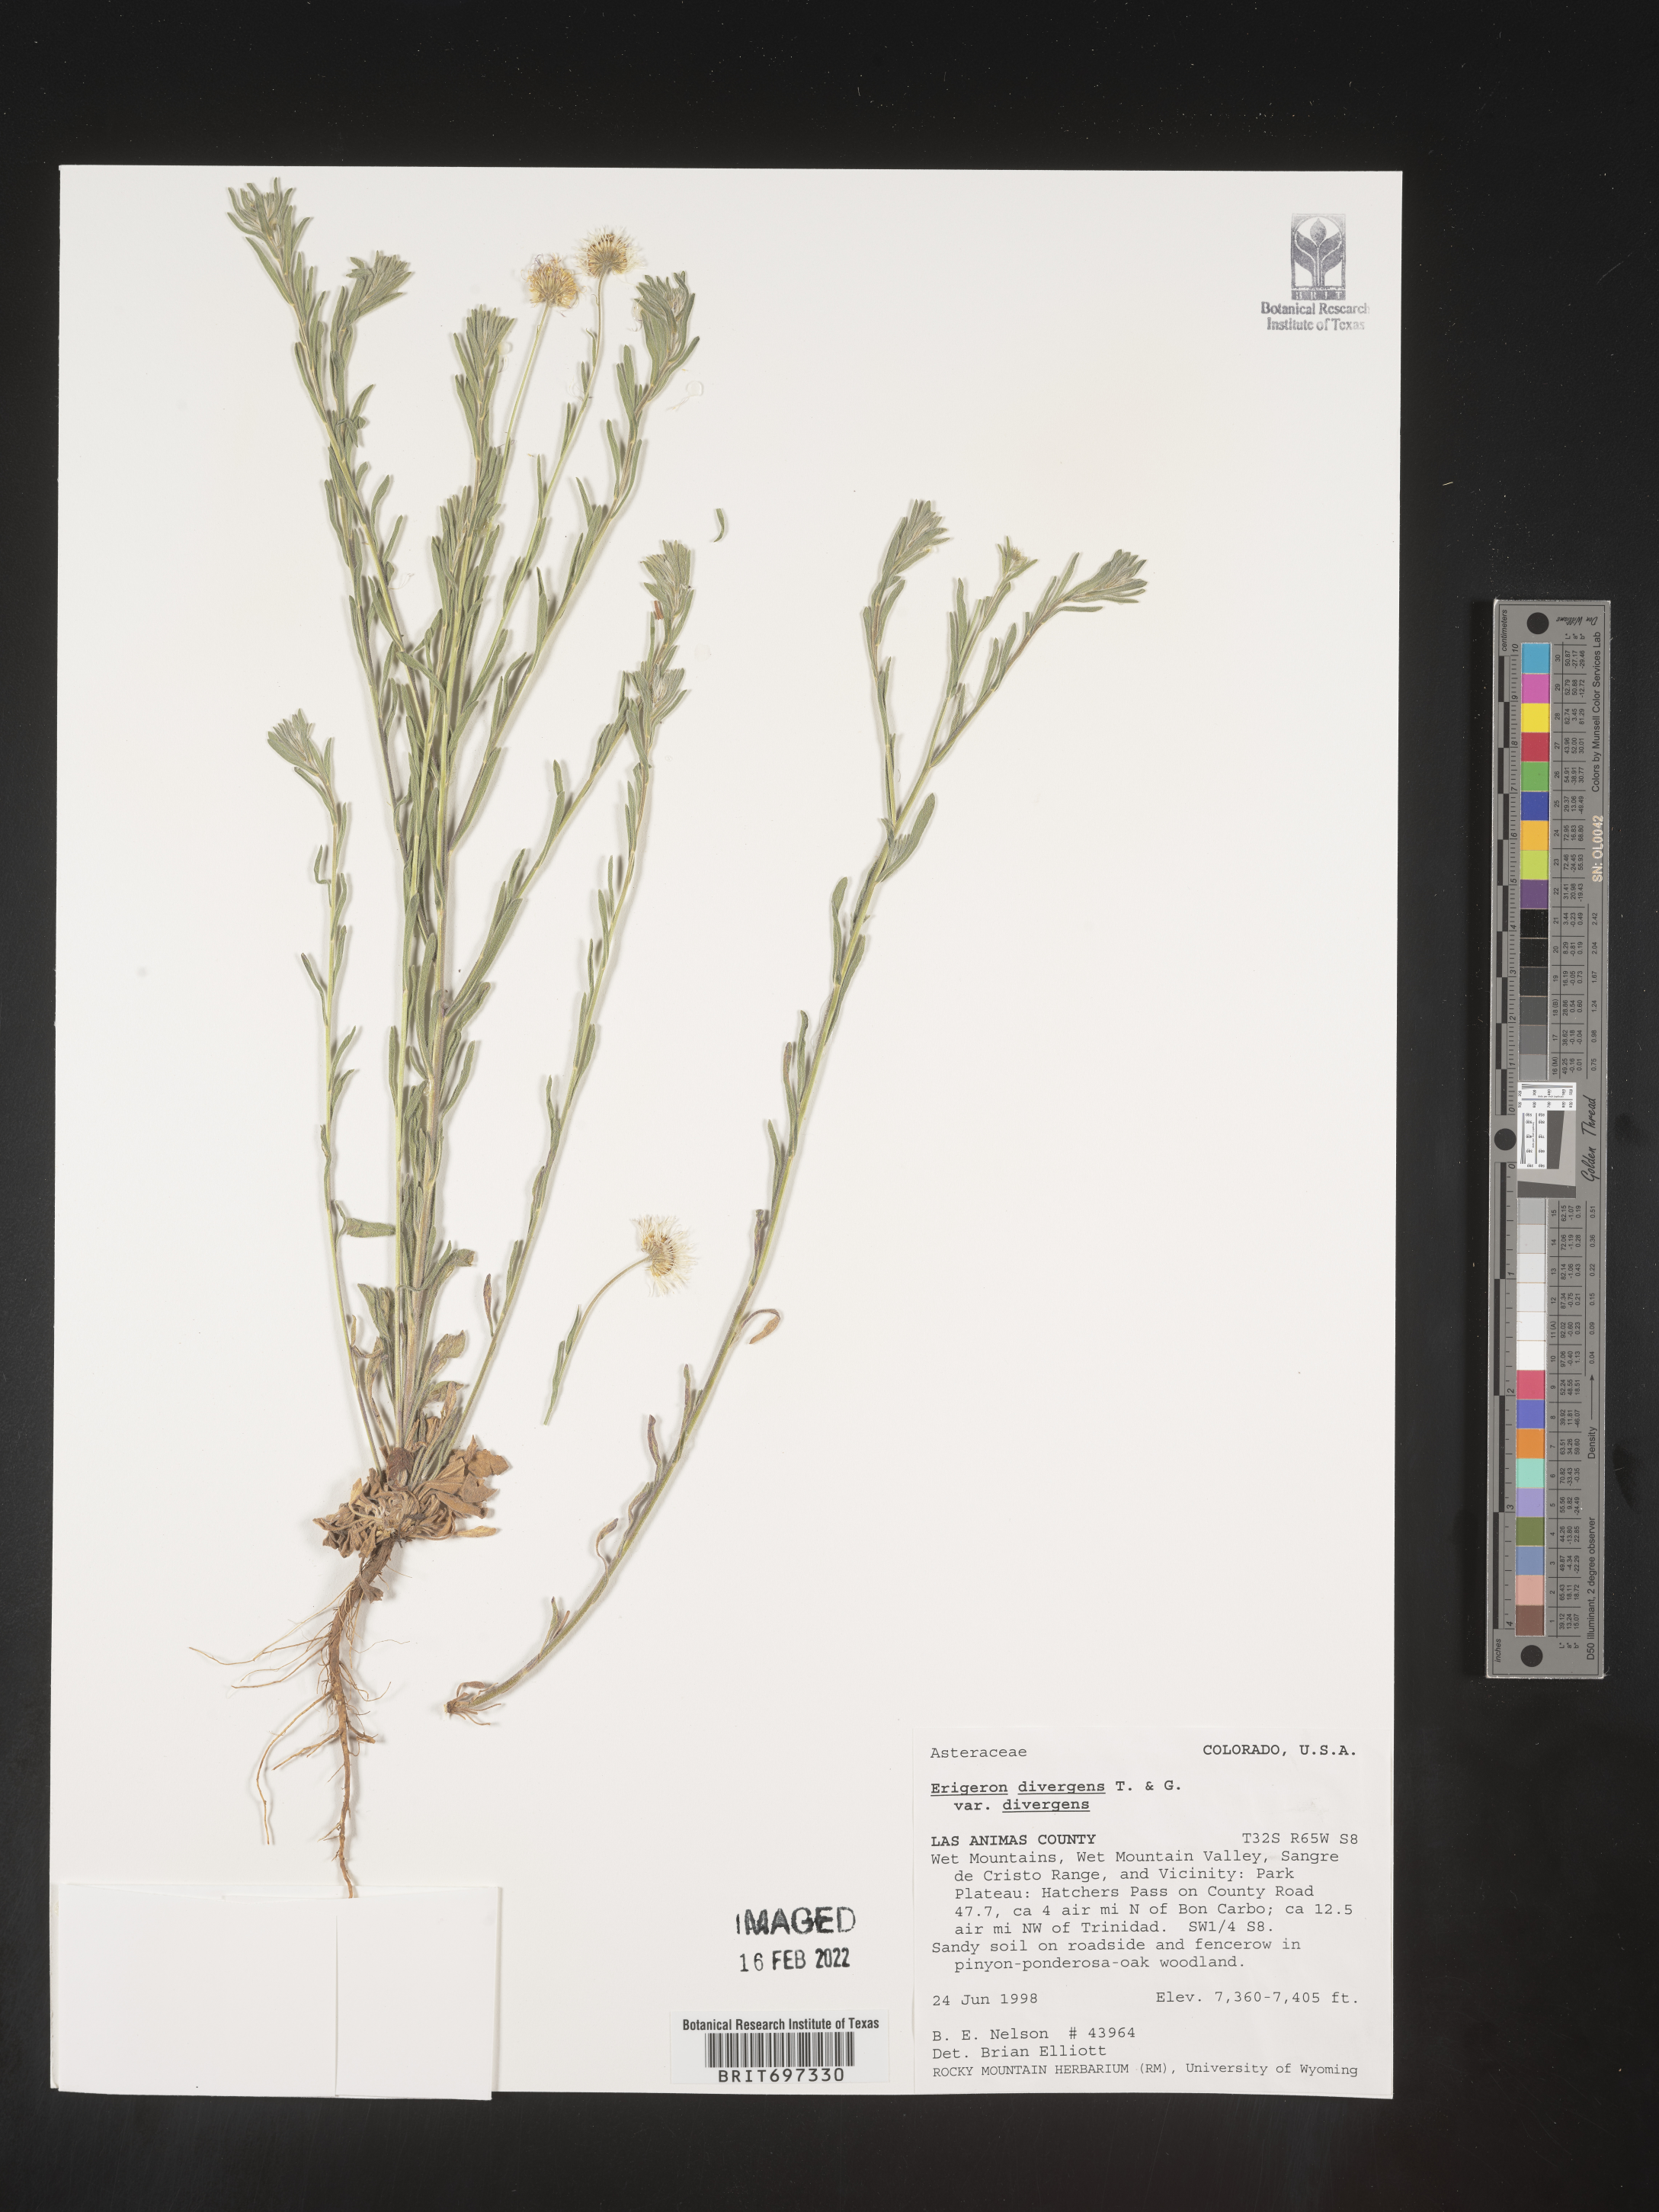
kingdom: Plantae
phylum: Tracheophyta
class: Magnoliopsida
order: Asterales
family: Asteraceae
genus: Erigeron
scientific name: Erigeron divergens
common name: Diffuse fleabane
